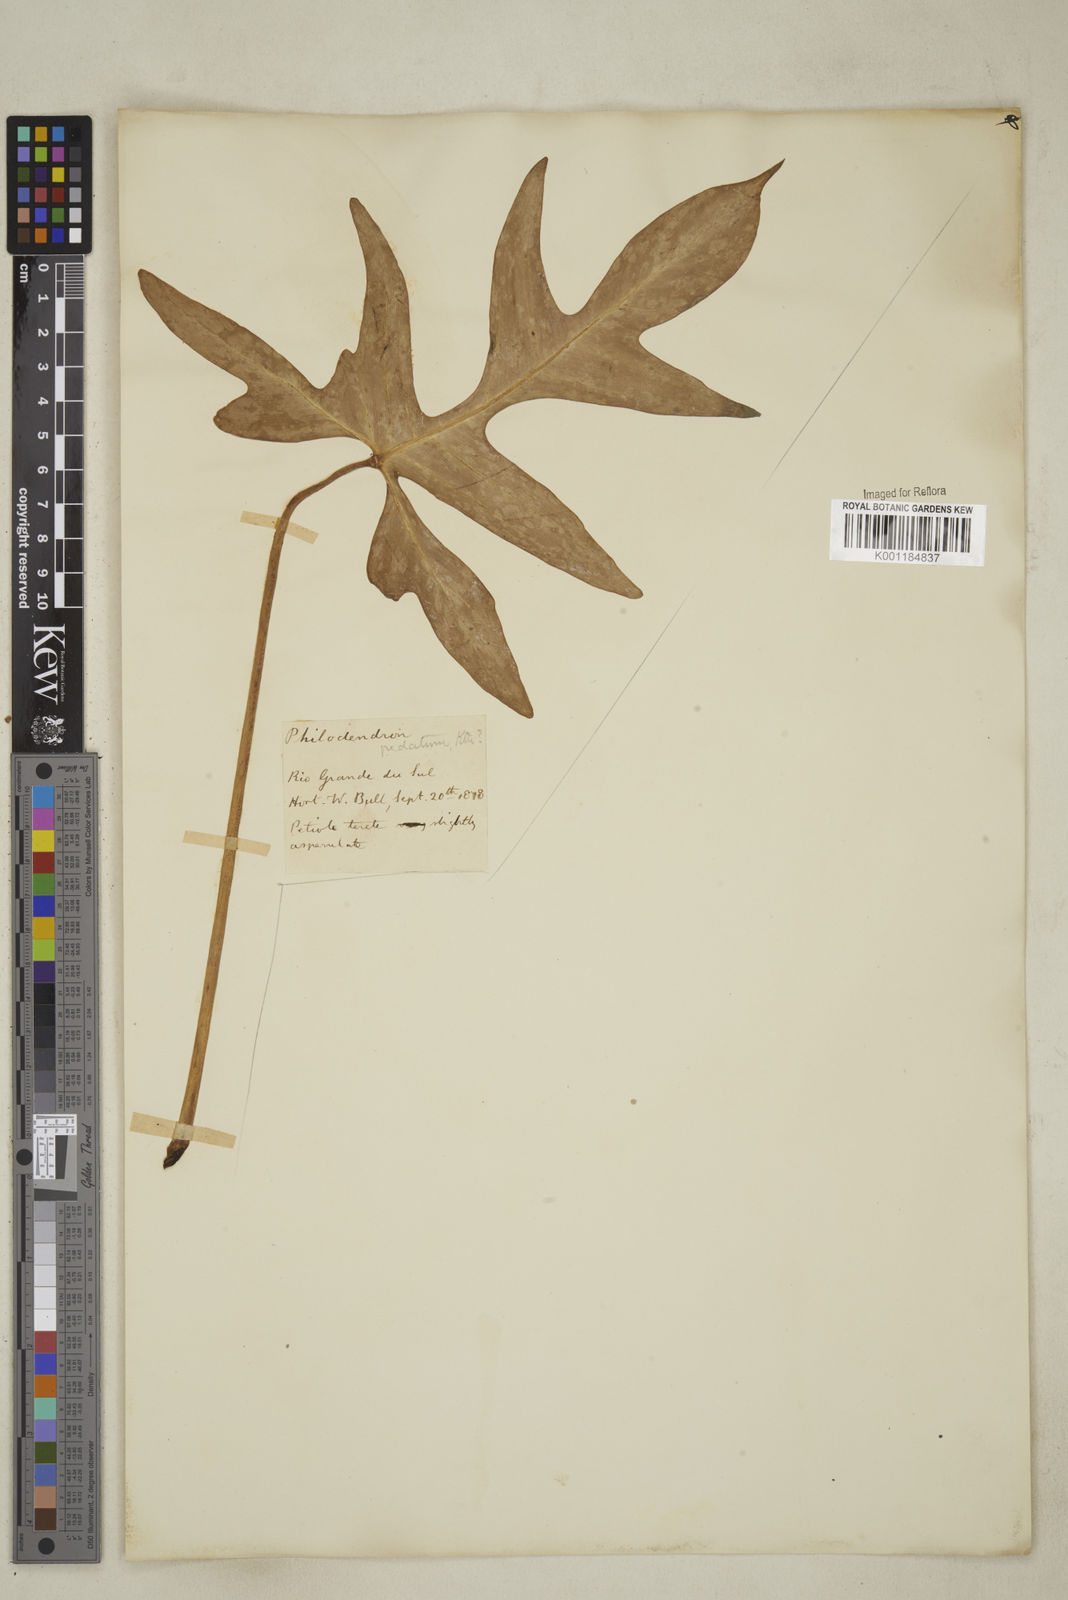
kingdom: Plantae
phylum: Tracheophyta
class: Liliopsida
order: Alismatales
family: Araceae
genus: Philodendron
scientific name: Philodendron pedatum
